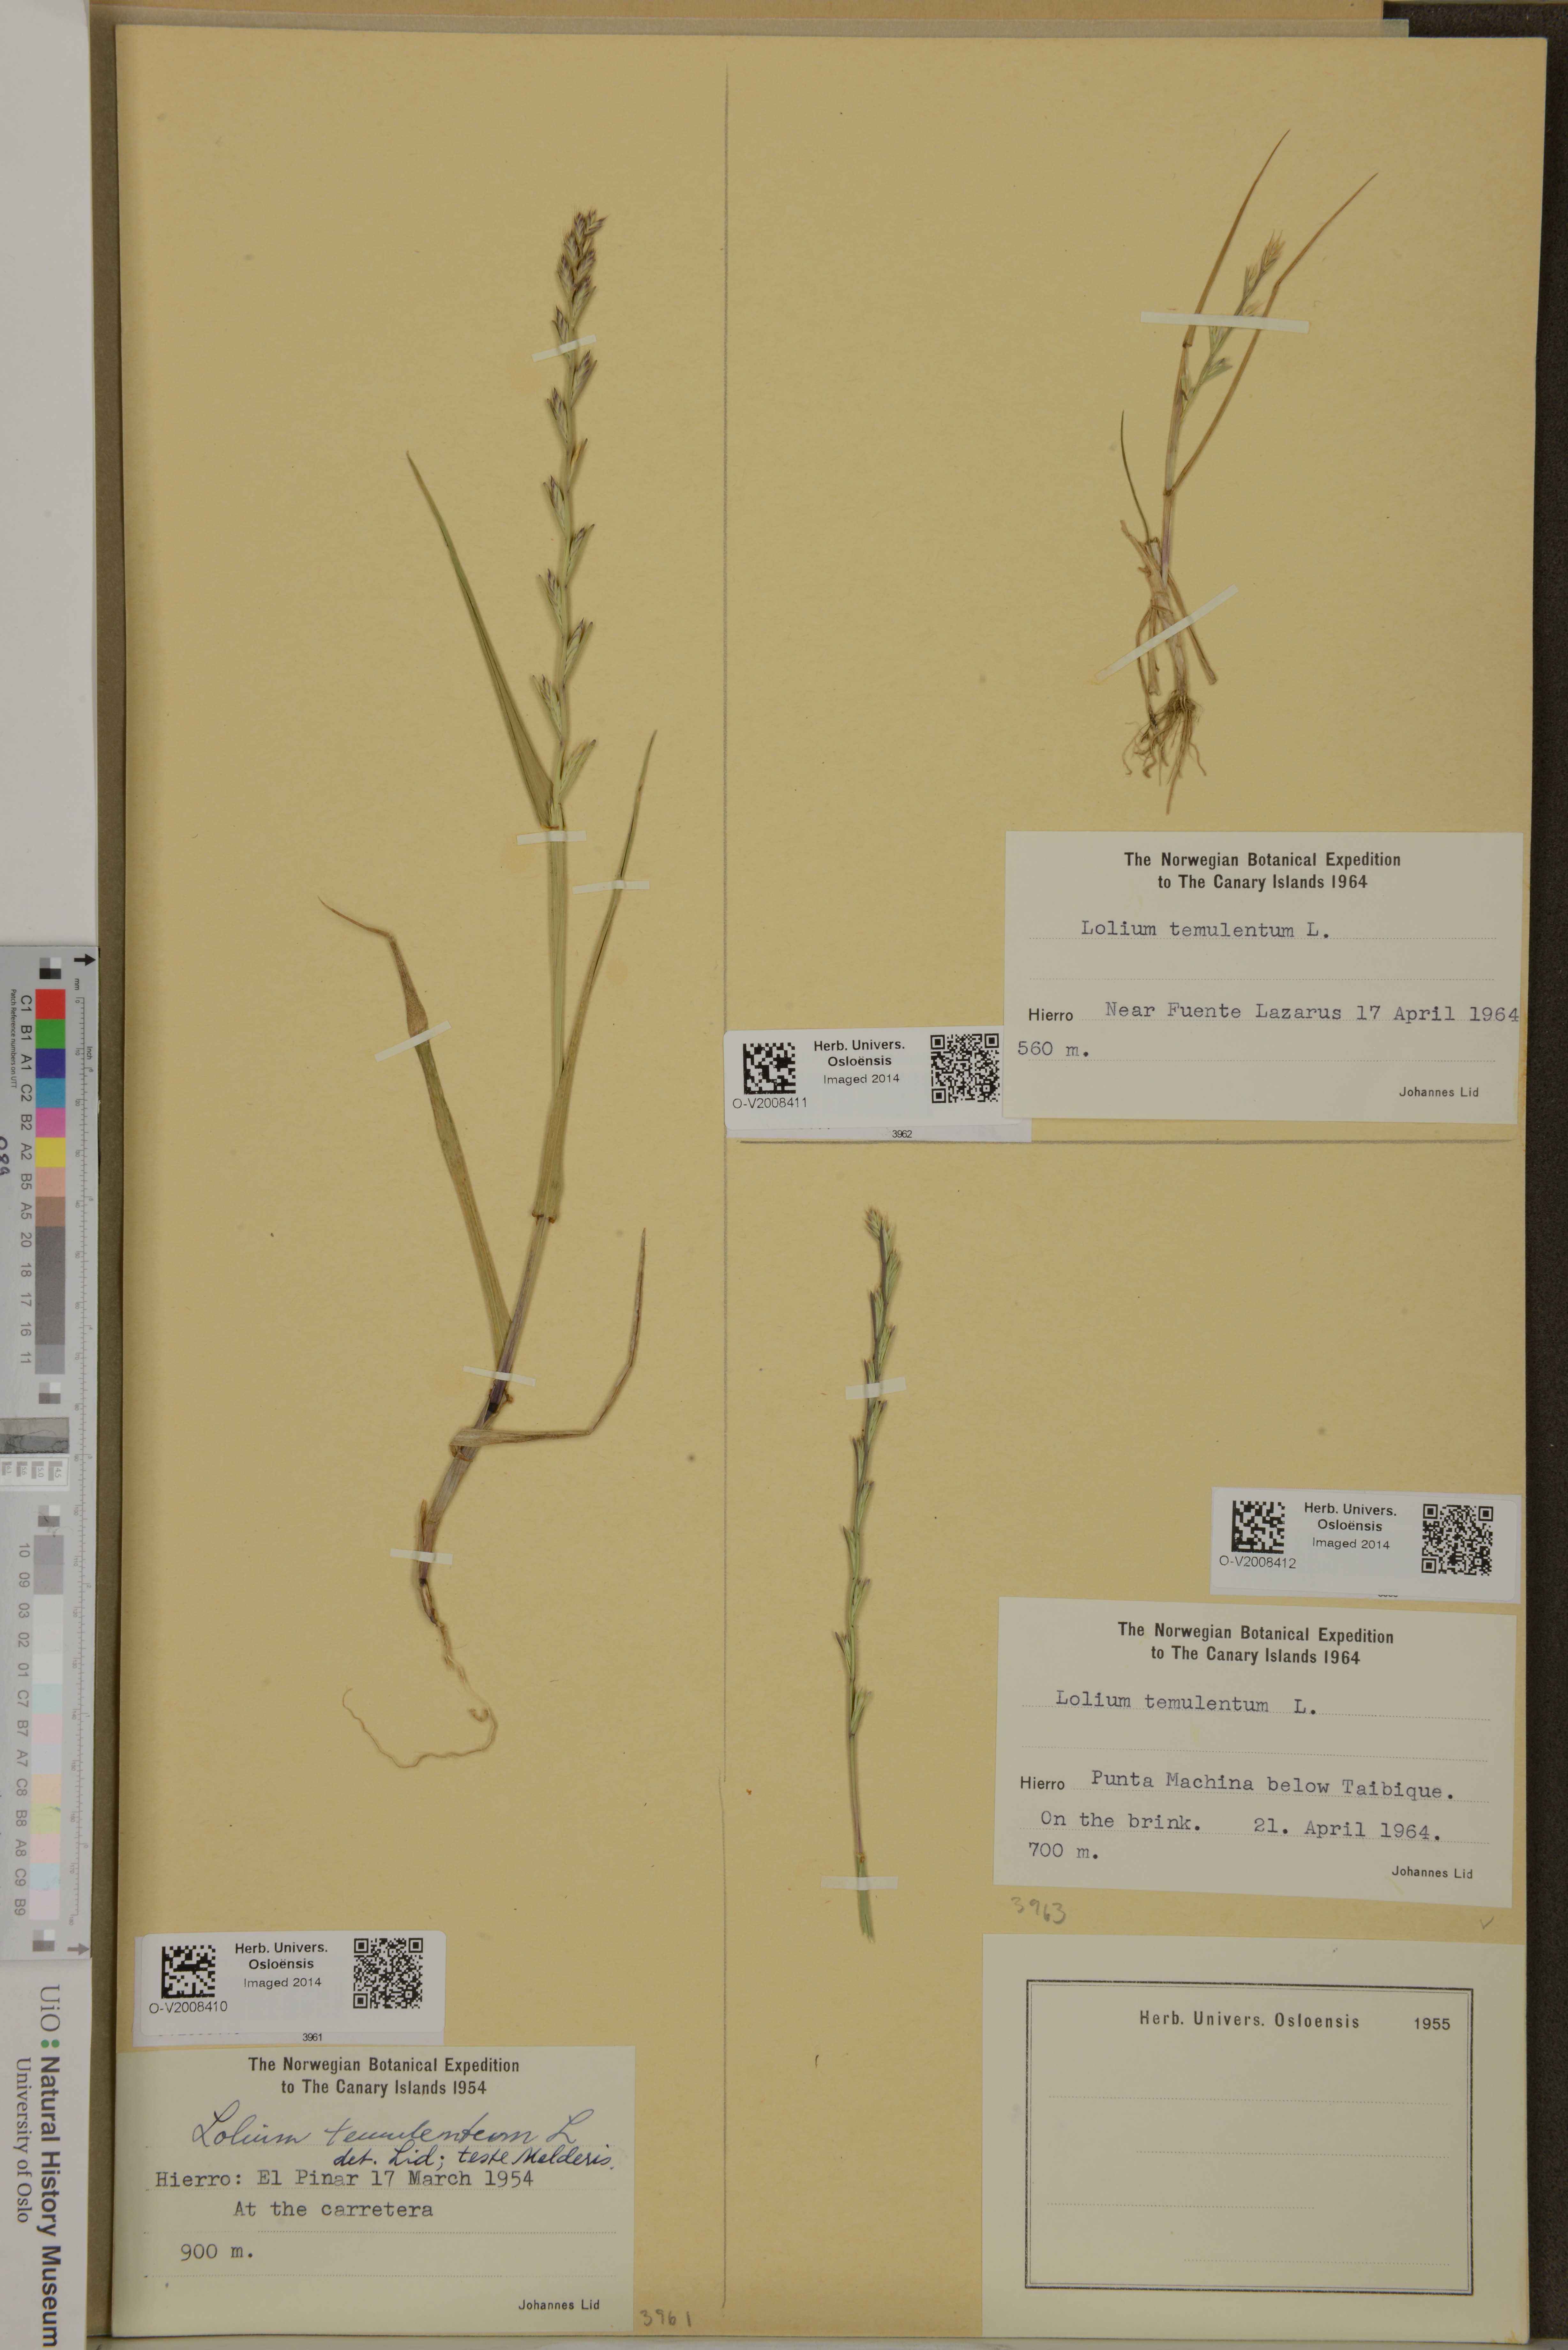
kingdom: Plantae
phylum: Tracheophyta
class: Liliopsida
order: Poales
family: Poaceae
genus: Lolium
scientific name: Lolium temulentum
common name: Darnel
